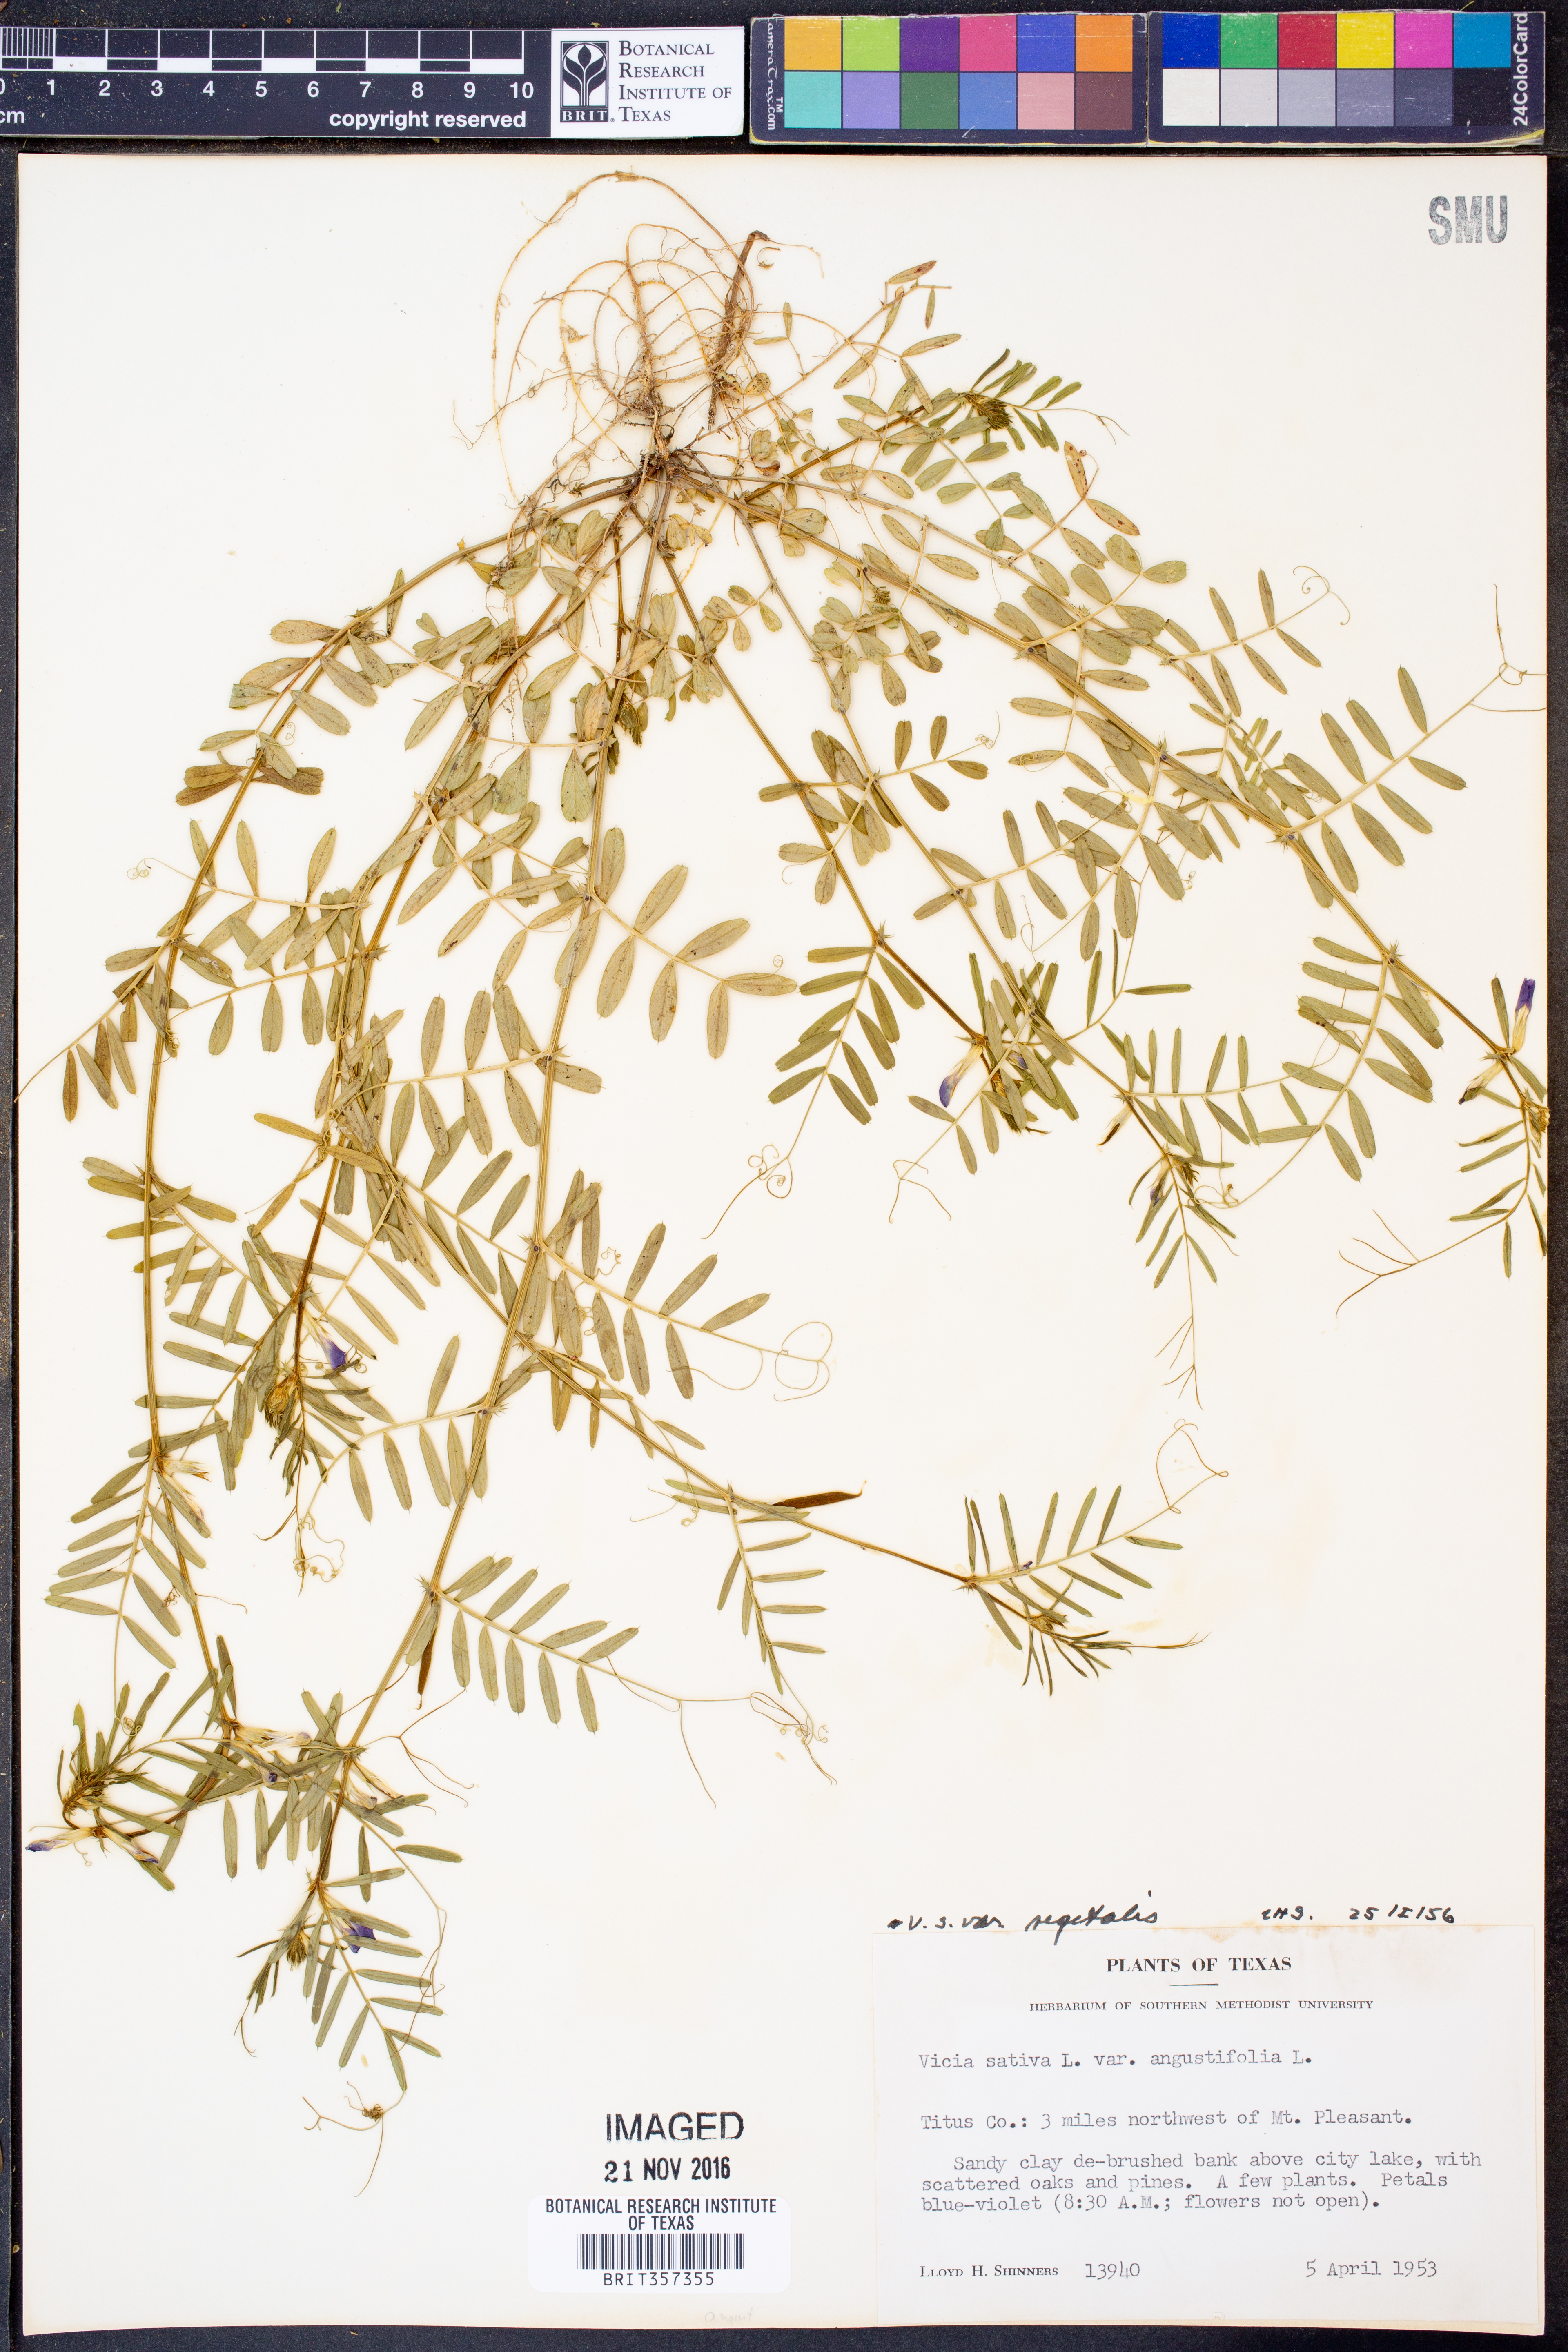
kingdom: Plantae
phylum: Tracheophyta
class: Magnoliopsida
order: Fabales
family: Fabaceae
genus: Vicia
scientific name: Vicia sativa
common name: Garden vetch
